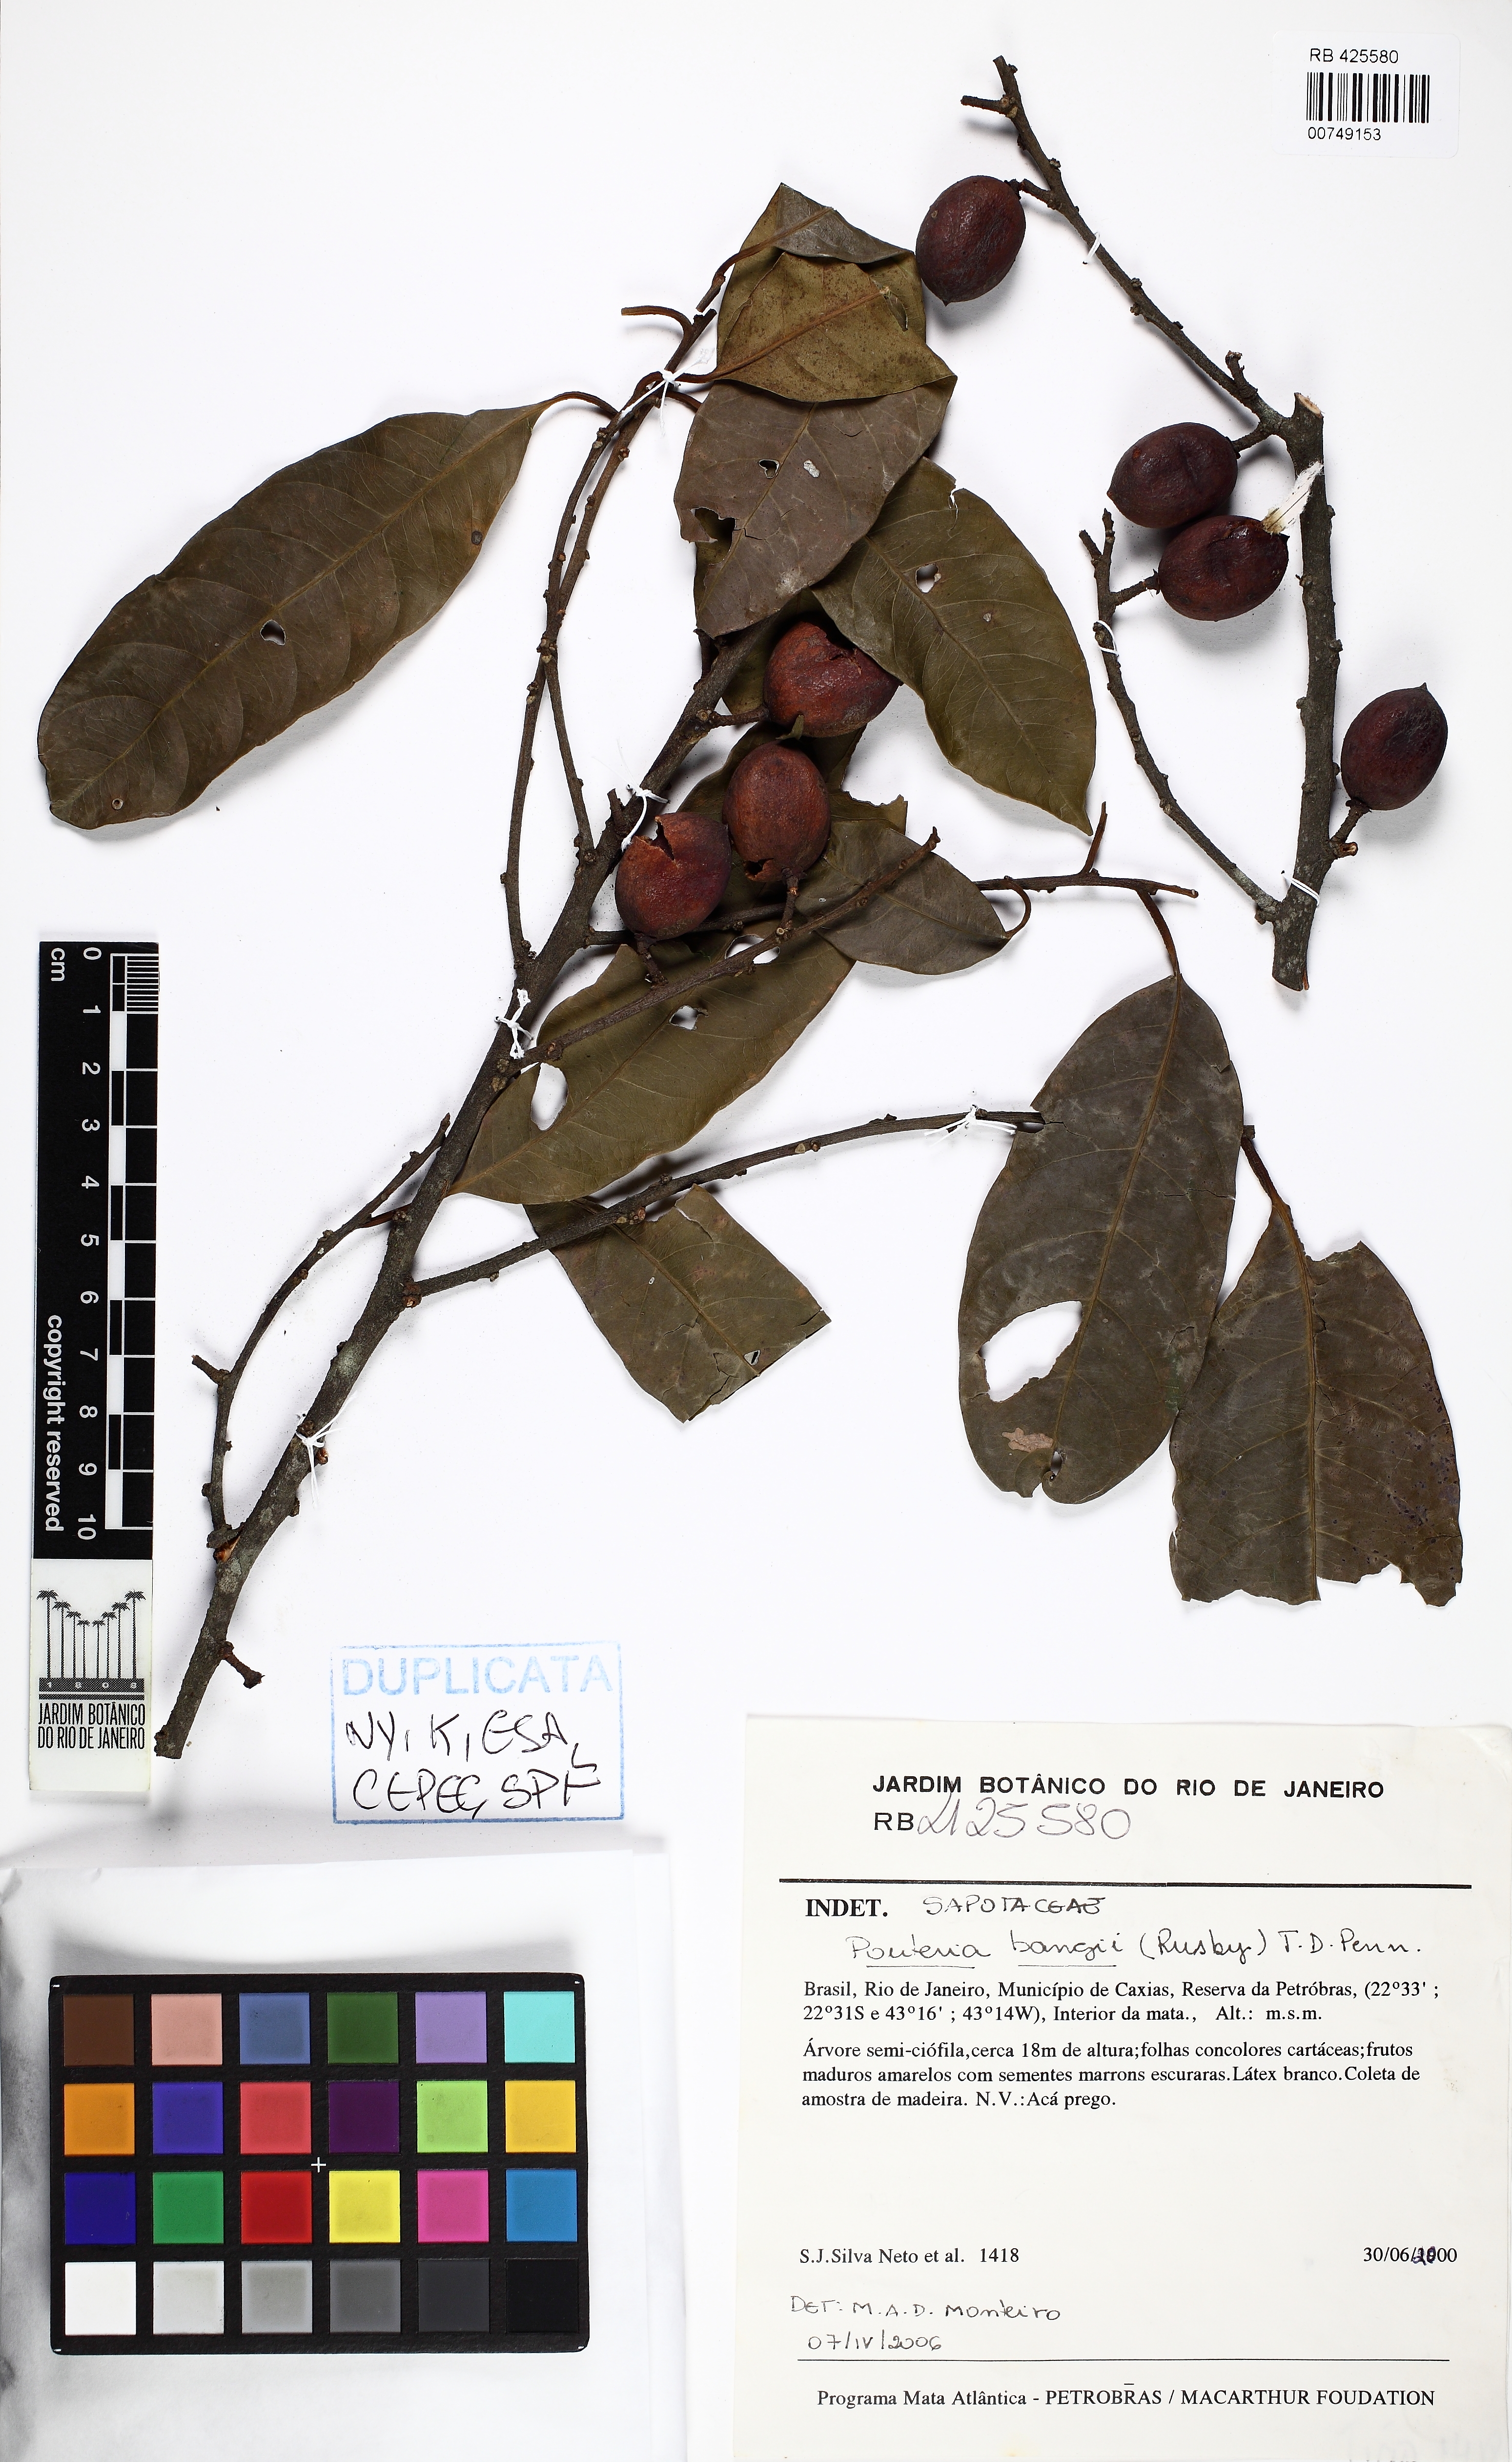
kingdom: Plantae
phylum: Tracheophyta
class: Magnoliopsida
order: Ericales
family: Sapotaceae
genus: Pouteria
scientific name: Pouteria bangii
